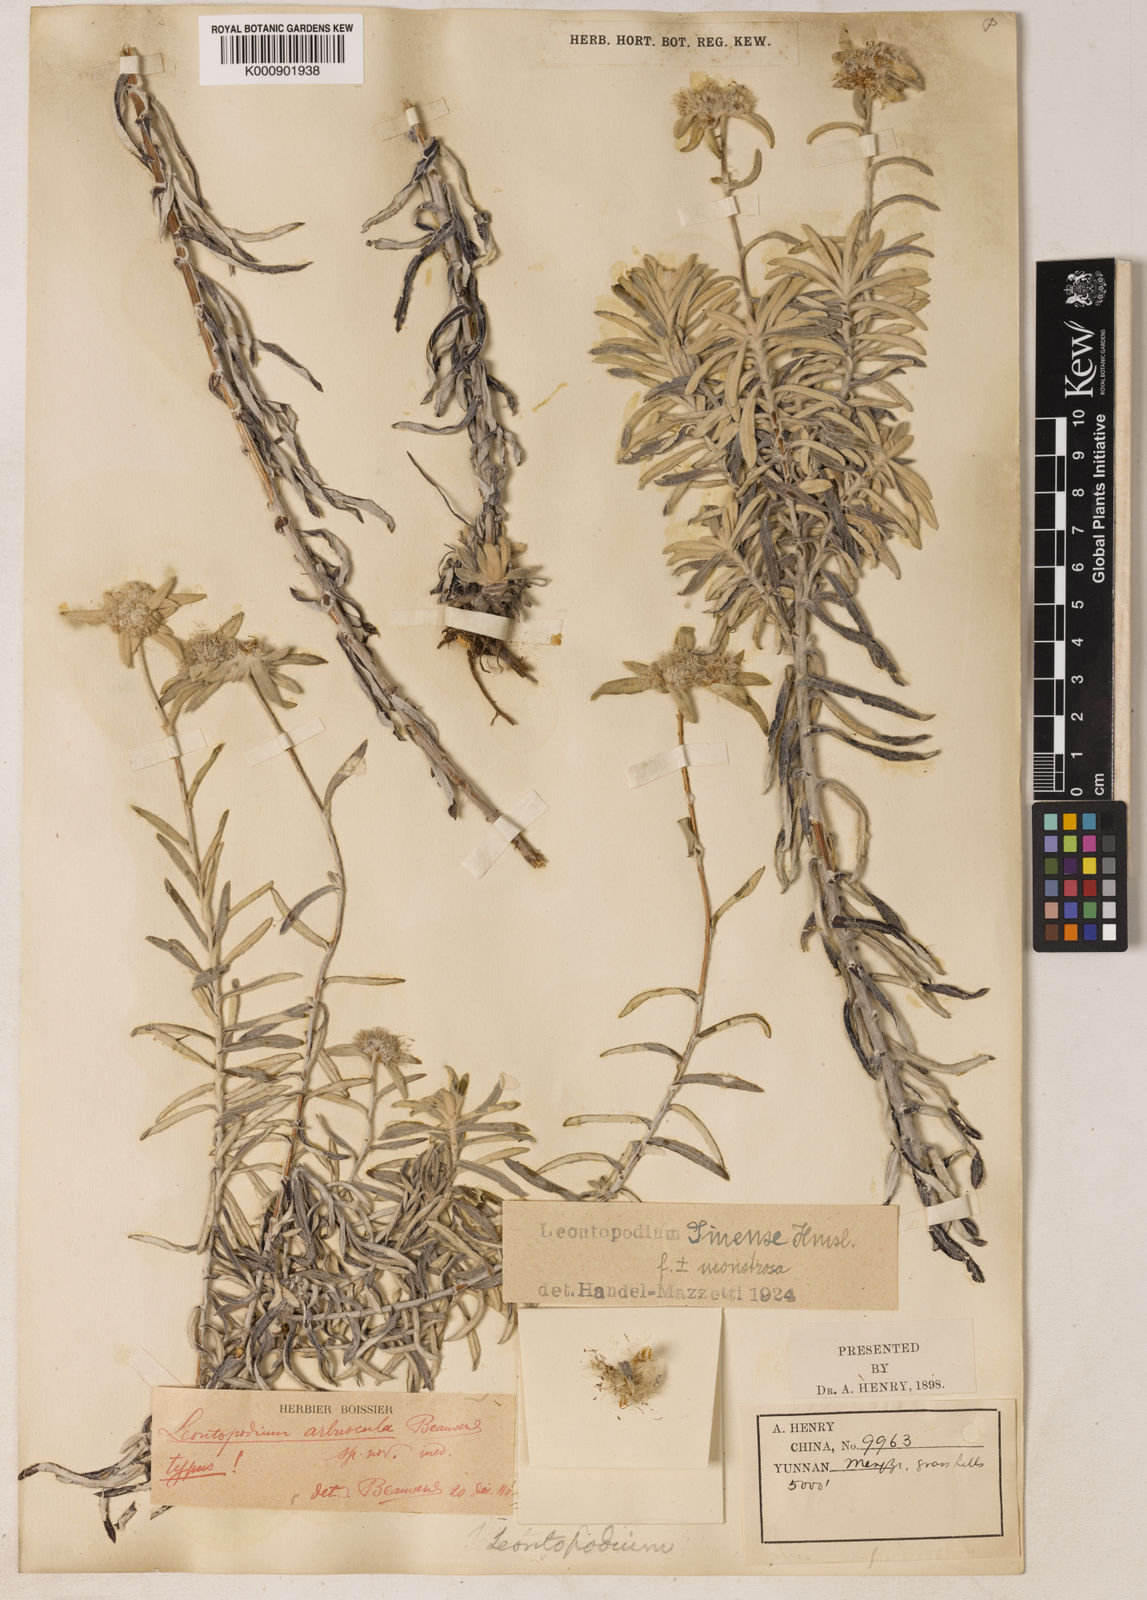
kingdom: Plantae
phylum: Tracheophyta
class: Magnoliopsida
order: Asterales
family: Asteraceae
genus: Leontopodium
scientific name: Leontopodium sinense
